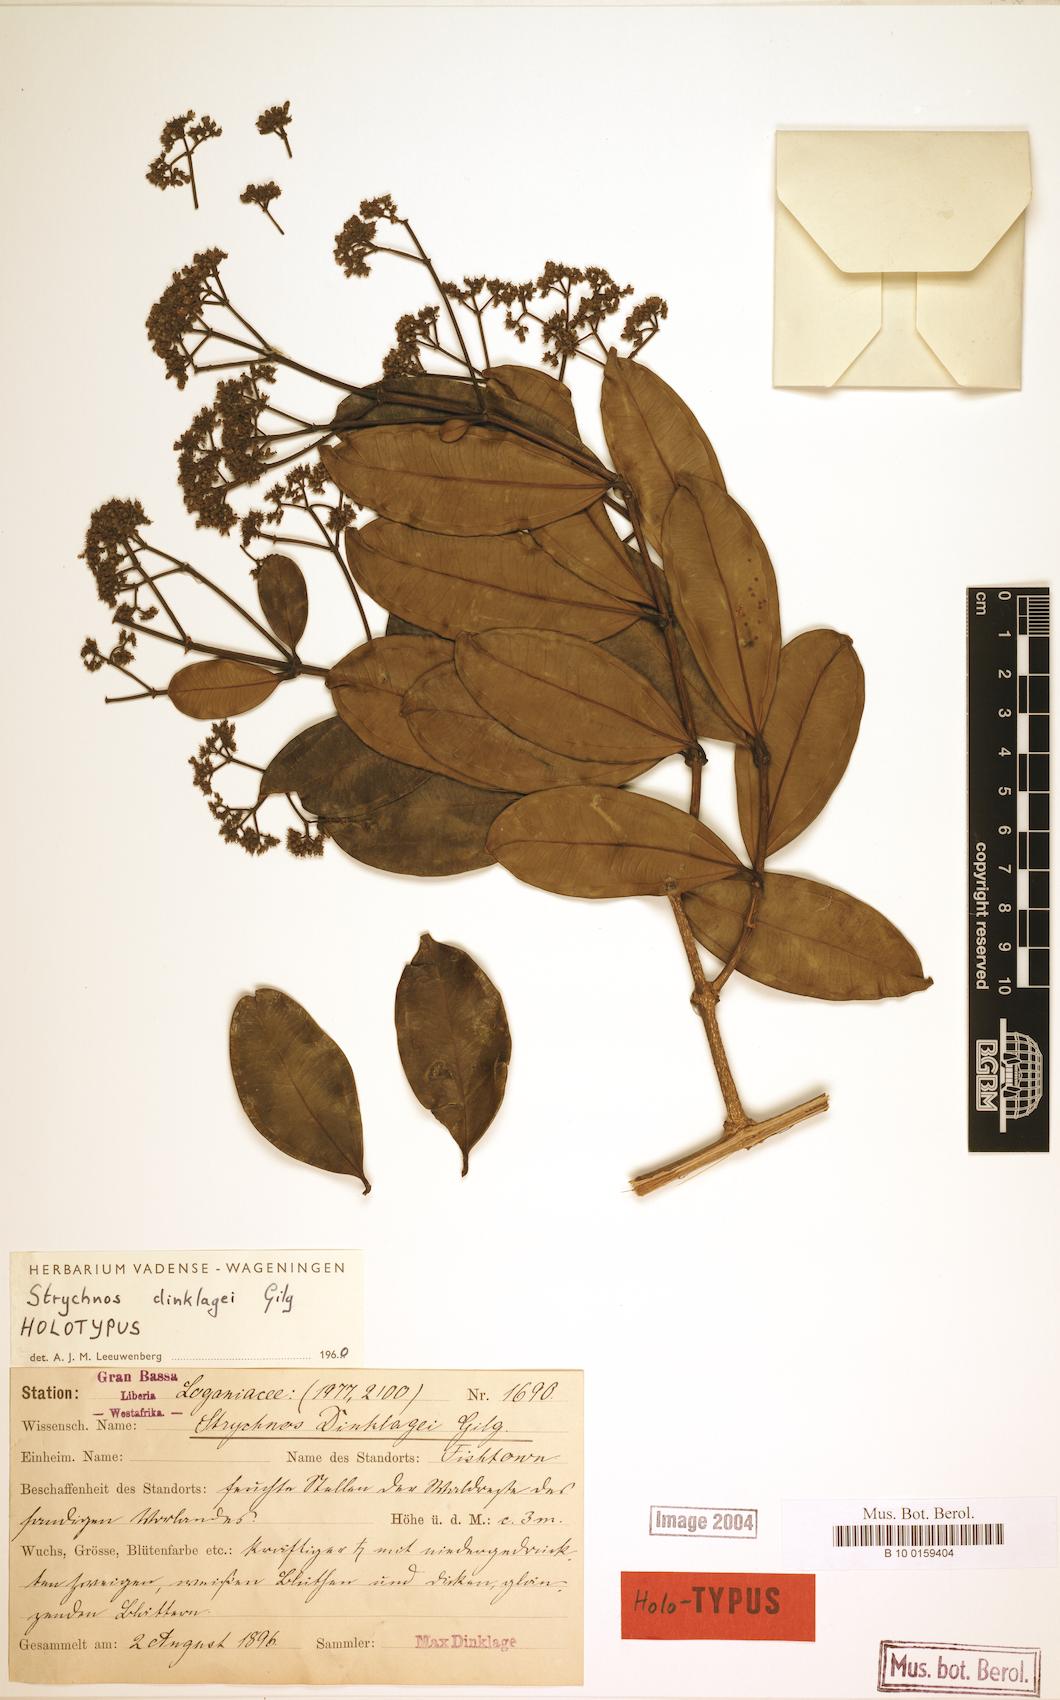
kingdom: Plantae
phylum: Tracheophyta
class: Magnoliopsida
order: Gentianales
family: Loganiaceae
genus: Strychnos
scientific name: Strychnos dinklagei
